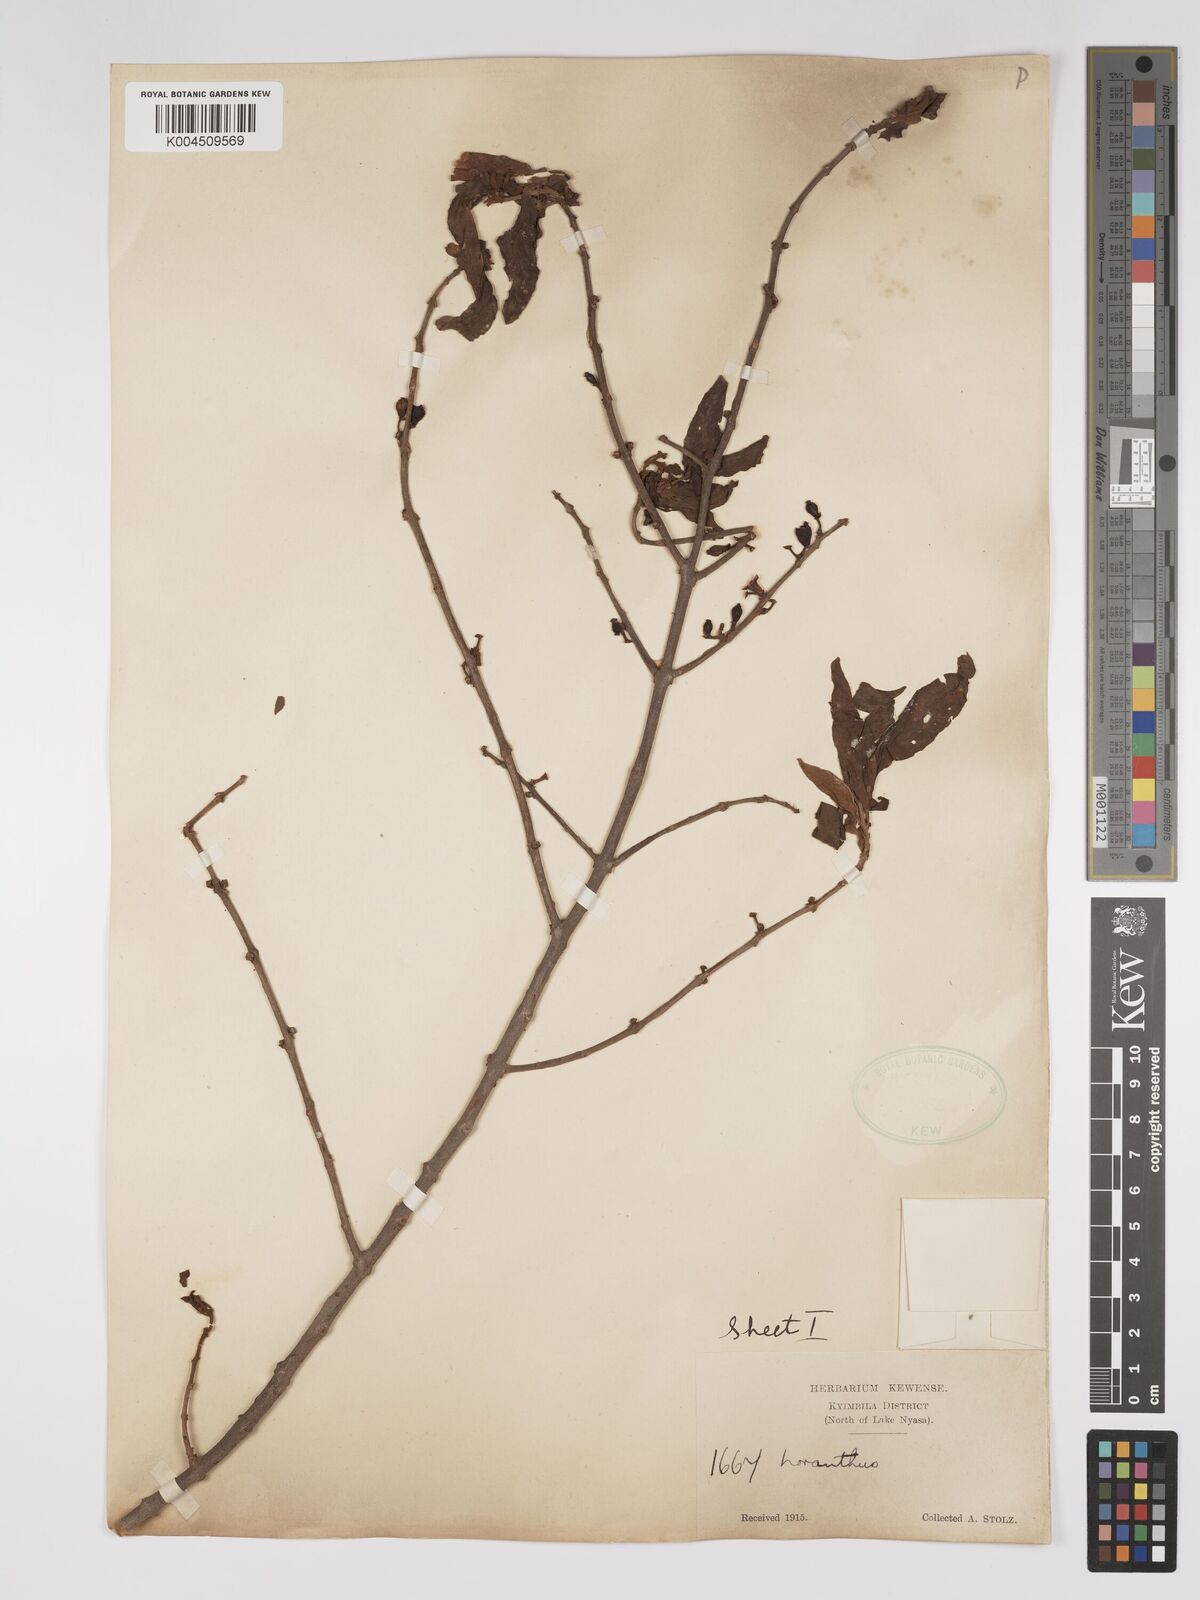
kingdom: Plantae
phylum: Tracheophyta
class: Magnoliopsida
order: Santalales
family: Loranthaceae
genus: Englerina
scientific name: Englerina inaequilatera
